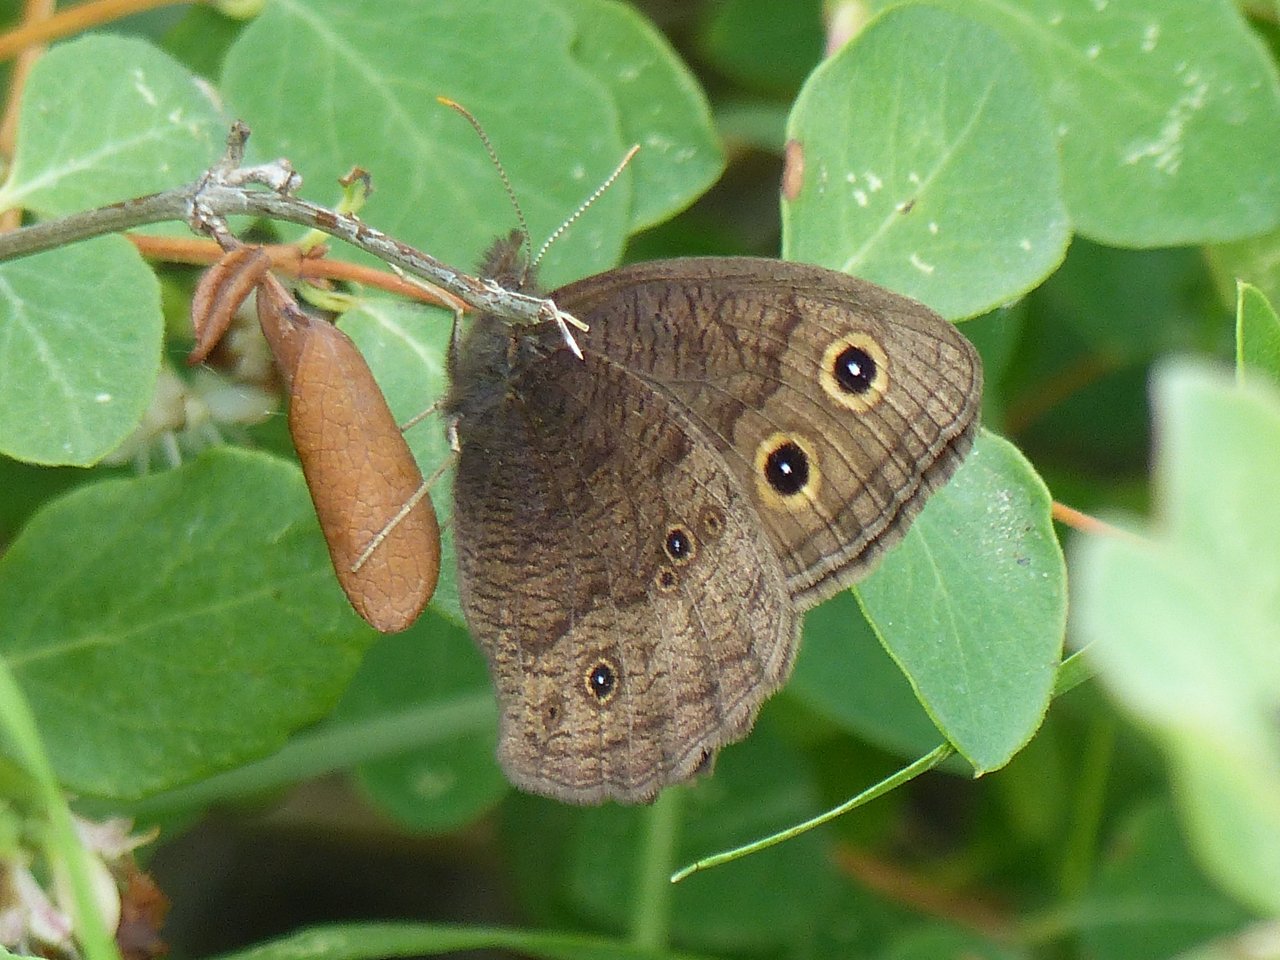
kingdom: Animalia
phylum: Arthropoda
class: Insecta
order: Lepidoptera
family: Nymphalidae
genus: Cercyonis
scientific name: Cercyonis pegala
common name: Common Wood-Nymph
